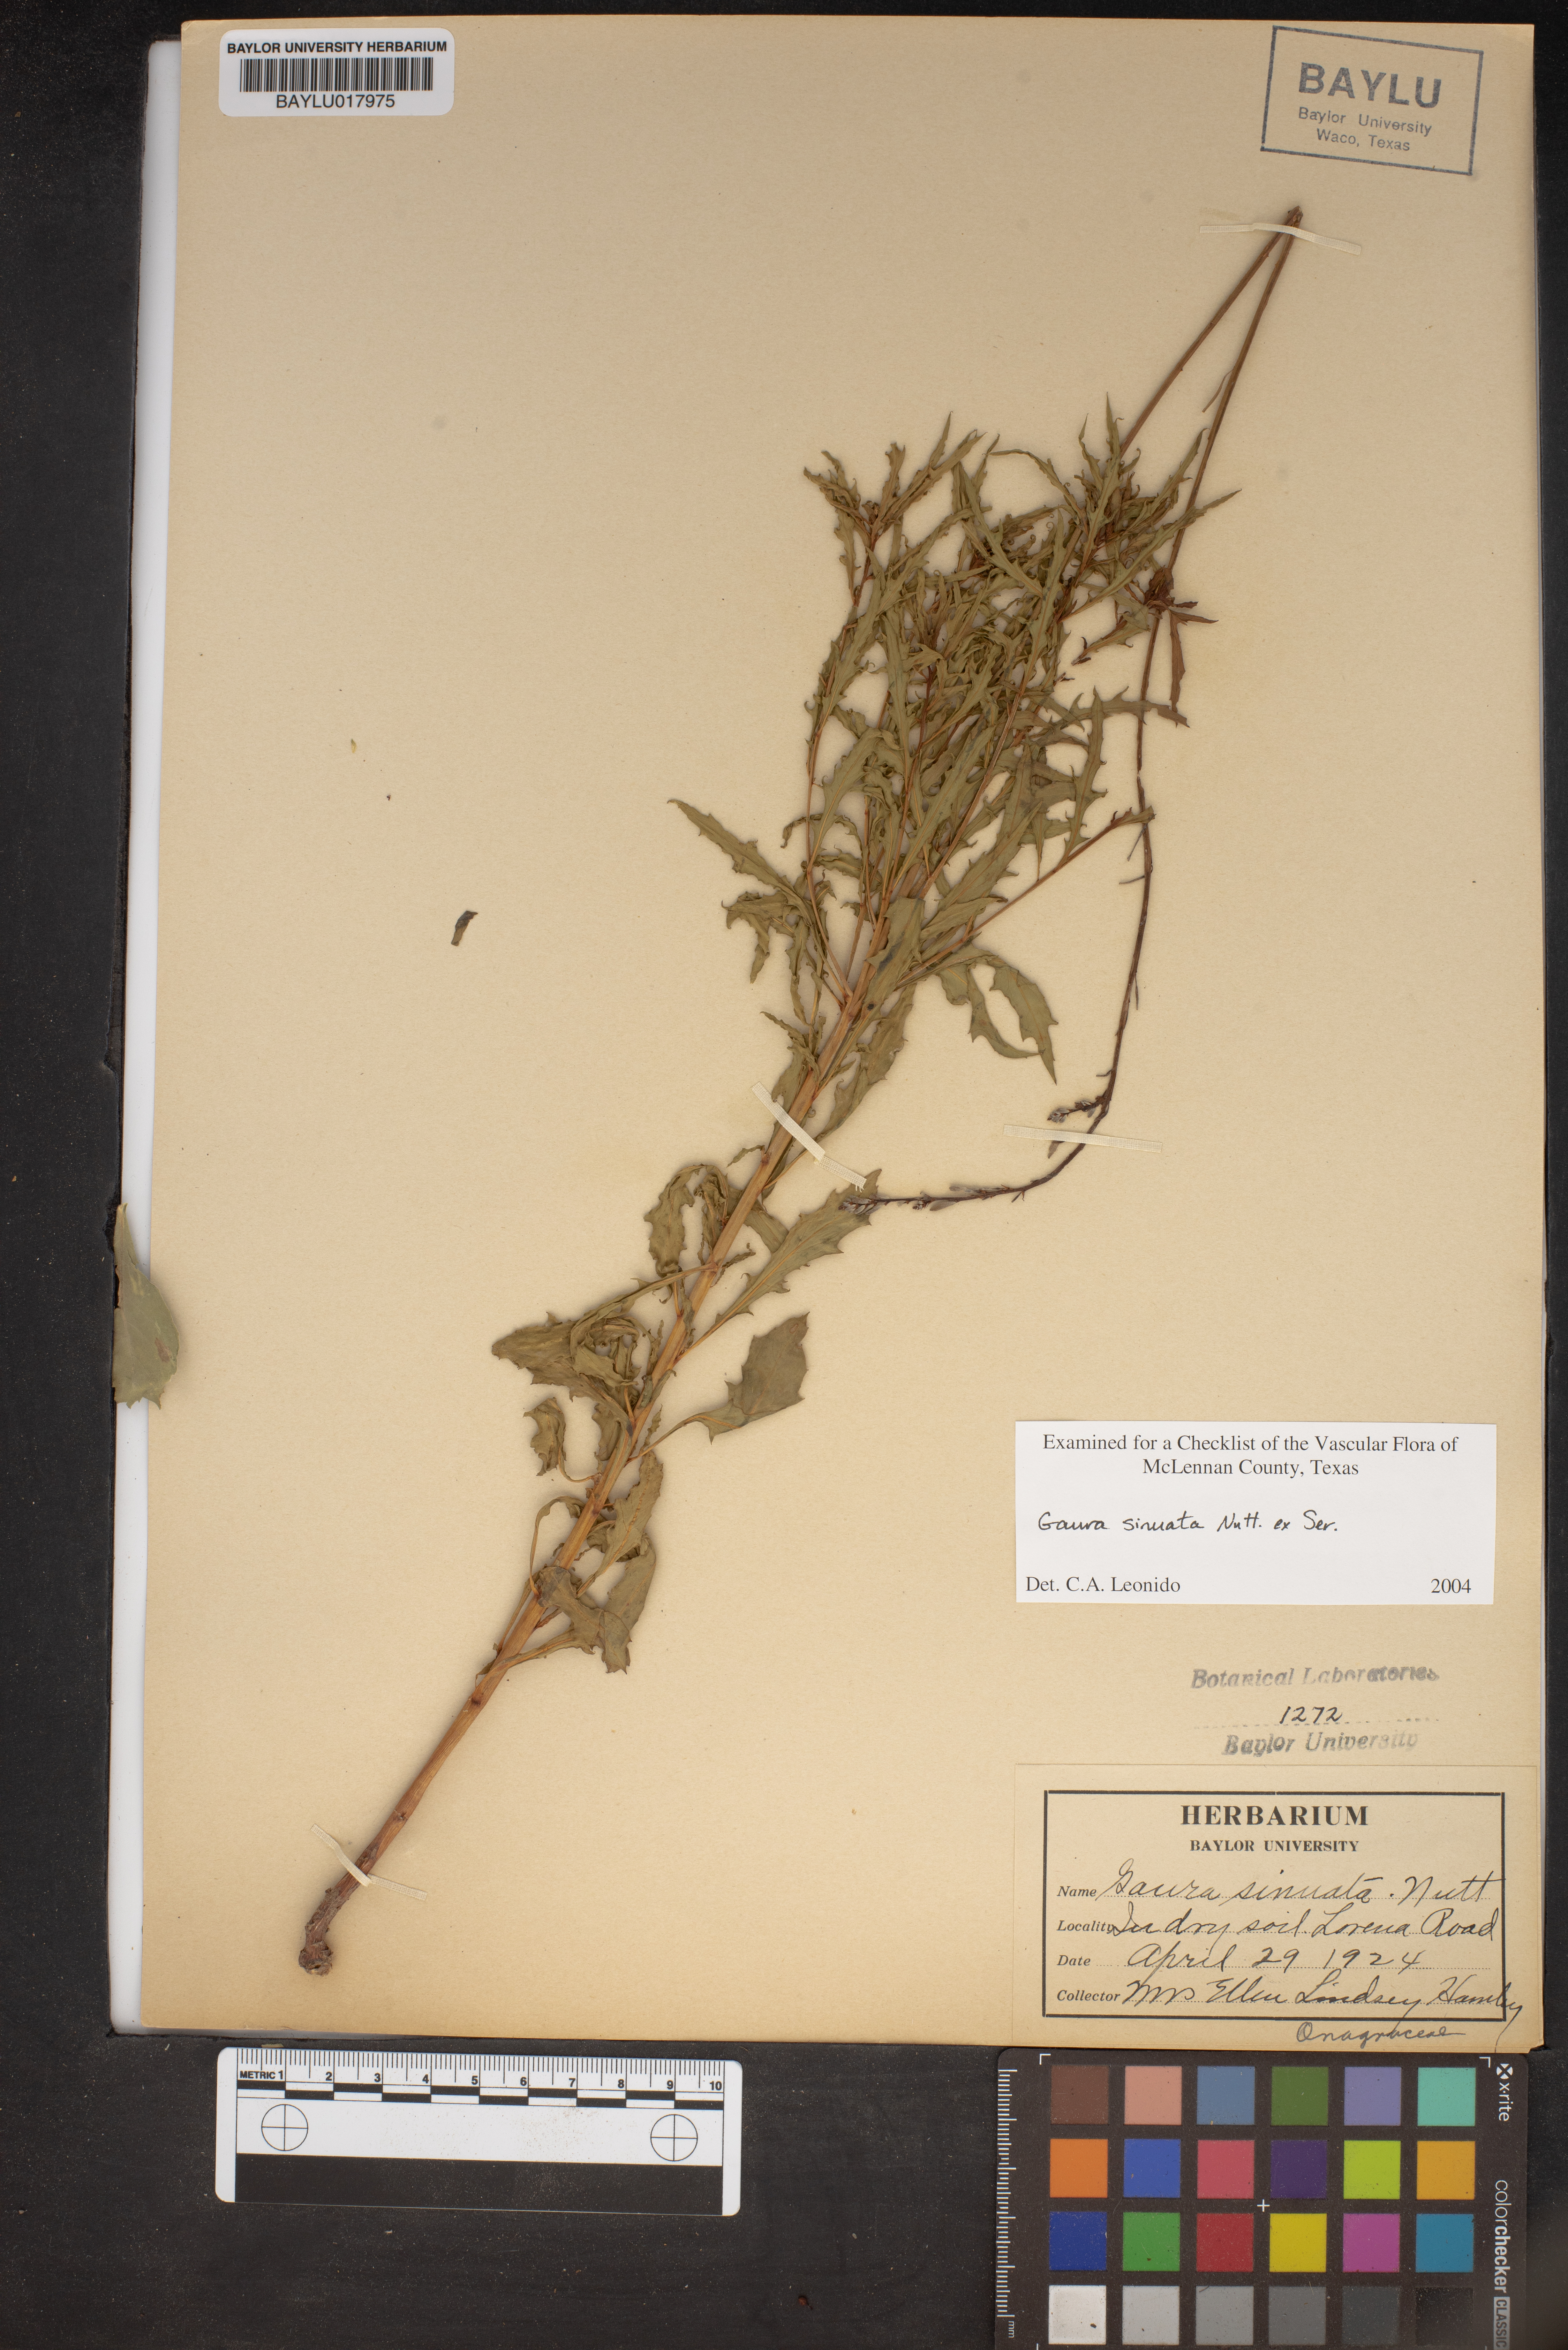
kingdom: Plantae
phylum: Tracheophyta
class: Magnoliopsida
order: Myrtales
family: Onagraceae
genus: Oenothera
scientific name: Oenothera sinuosa
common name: Wavyleaf beeblossom
